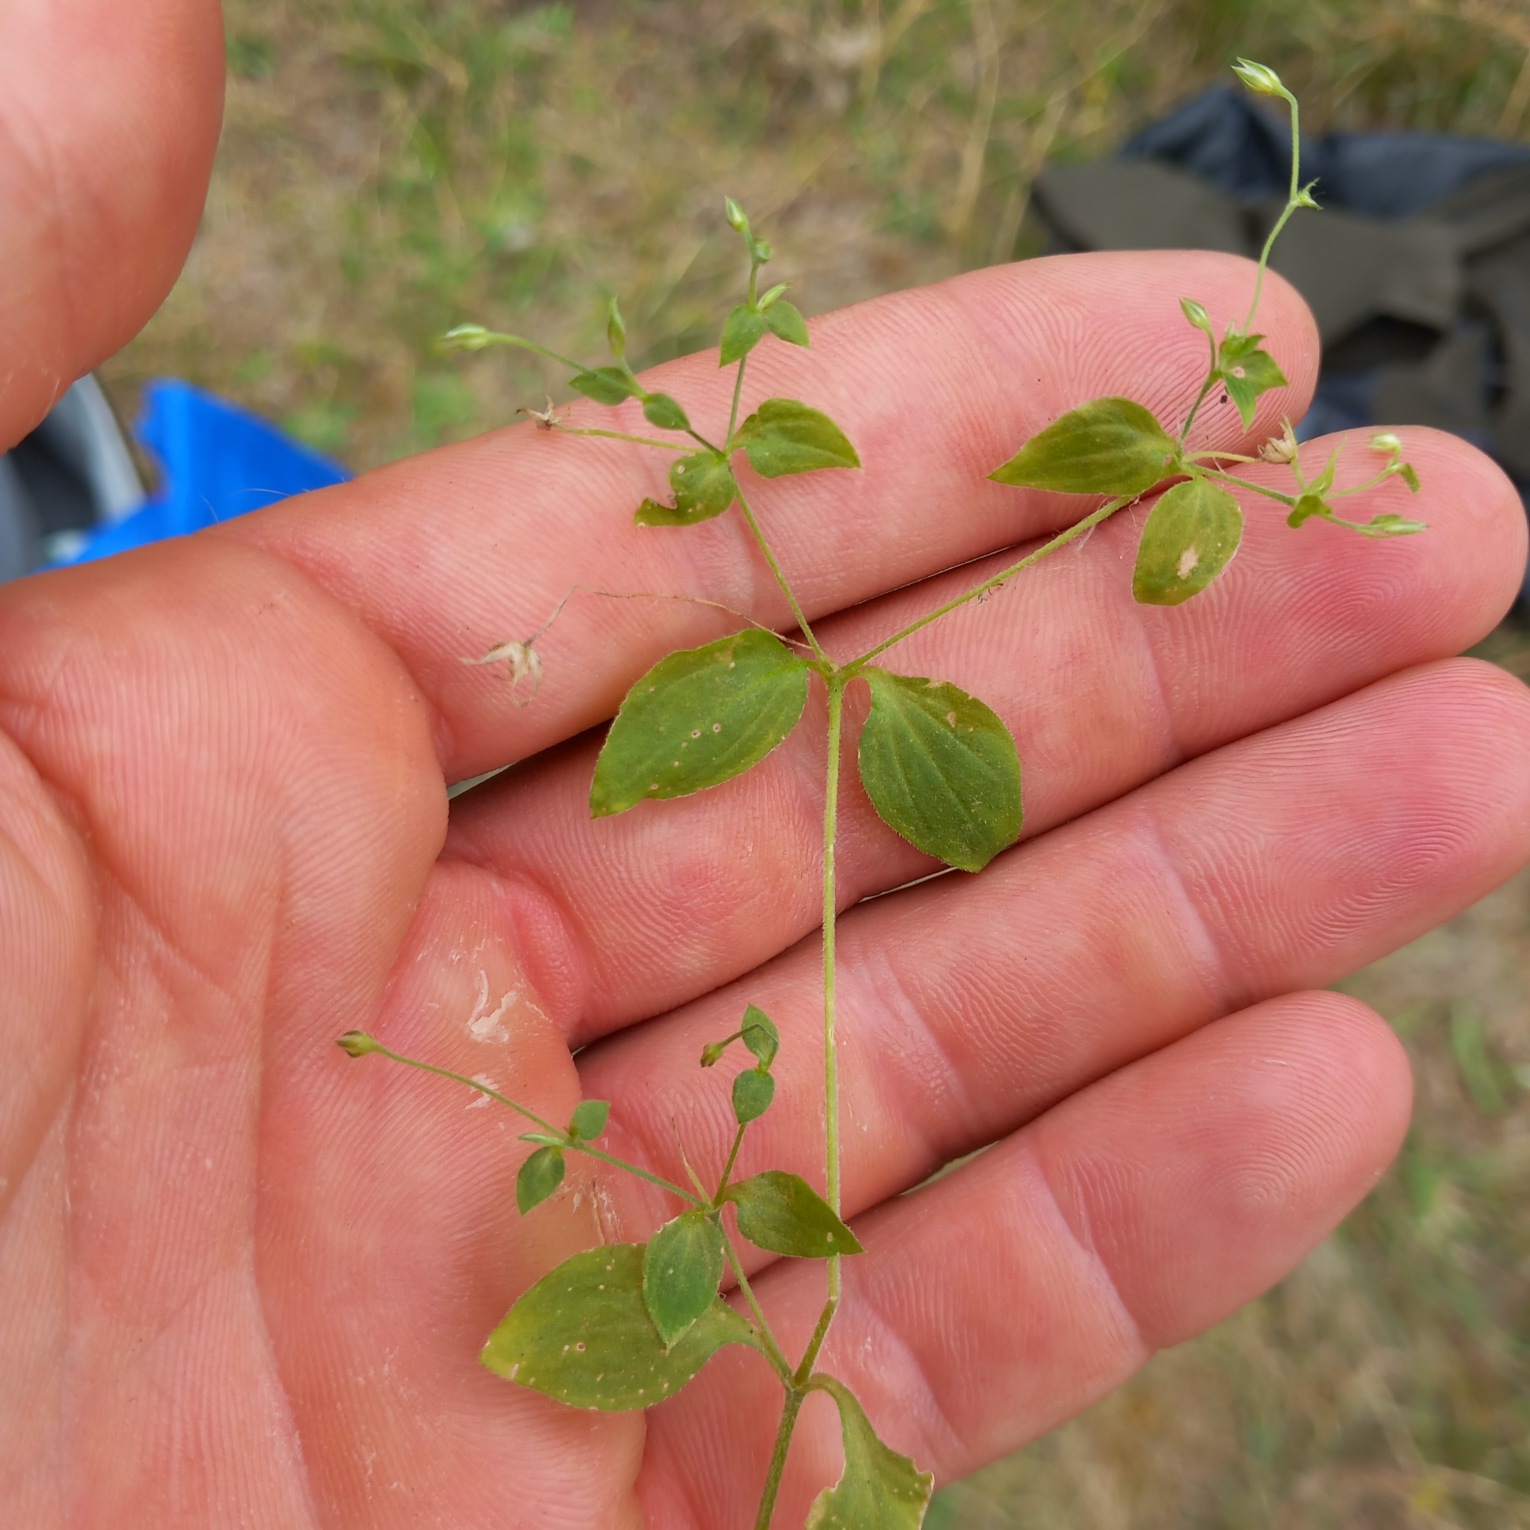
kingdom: Plantae
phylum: Tracheophyta
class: Magnoliopsida
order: Caryophyllales
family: Caryophyllaceae
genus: Moehringia
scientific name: Moehringia trinervia
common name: Skovarve
